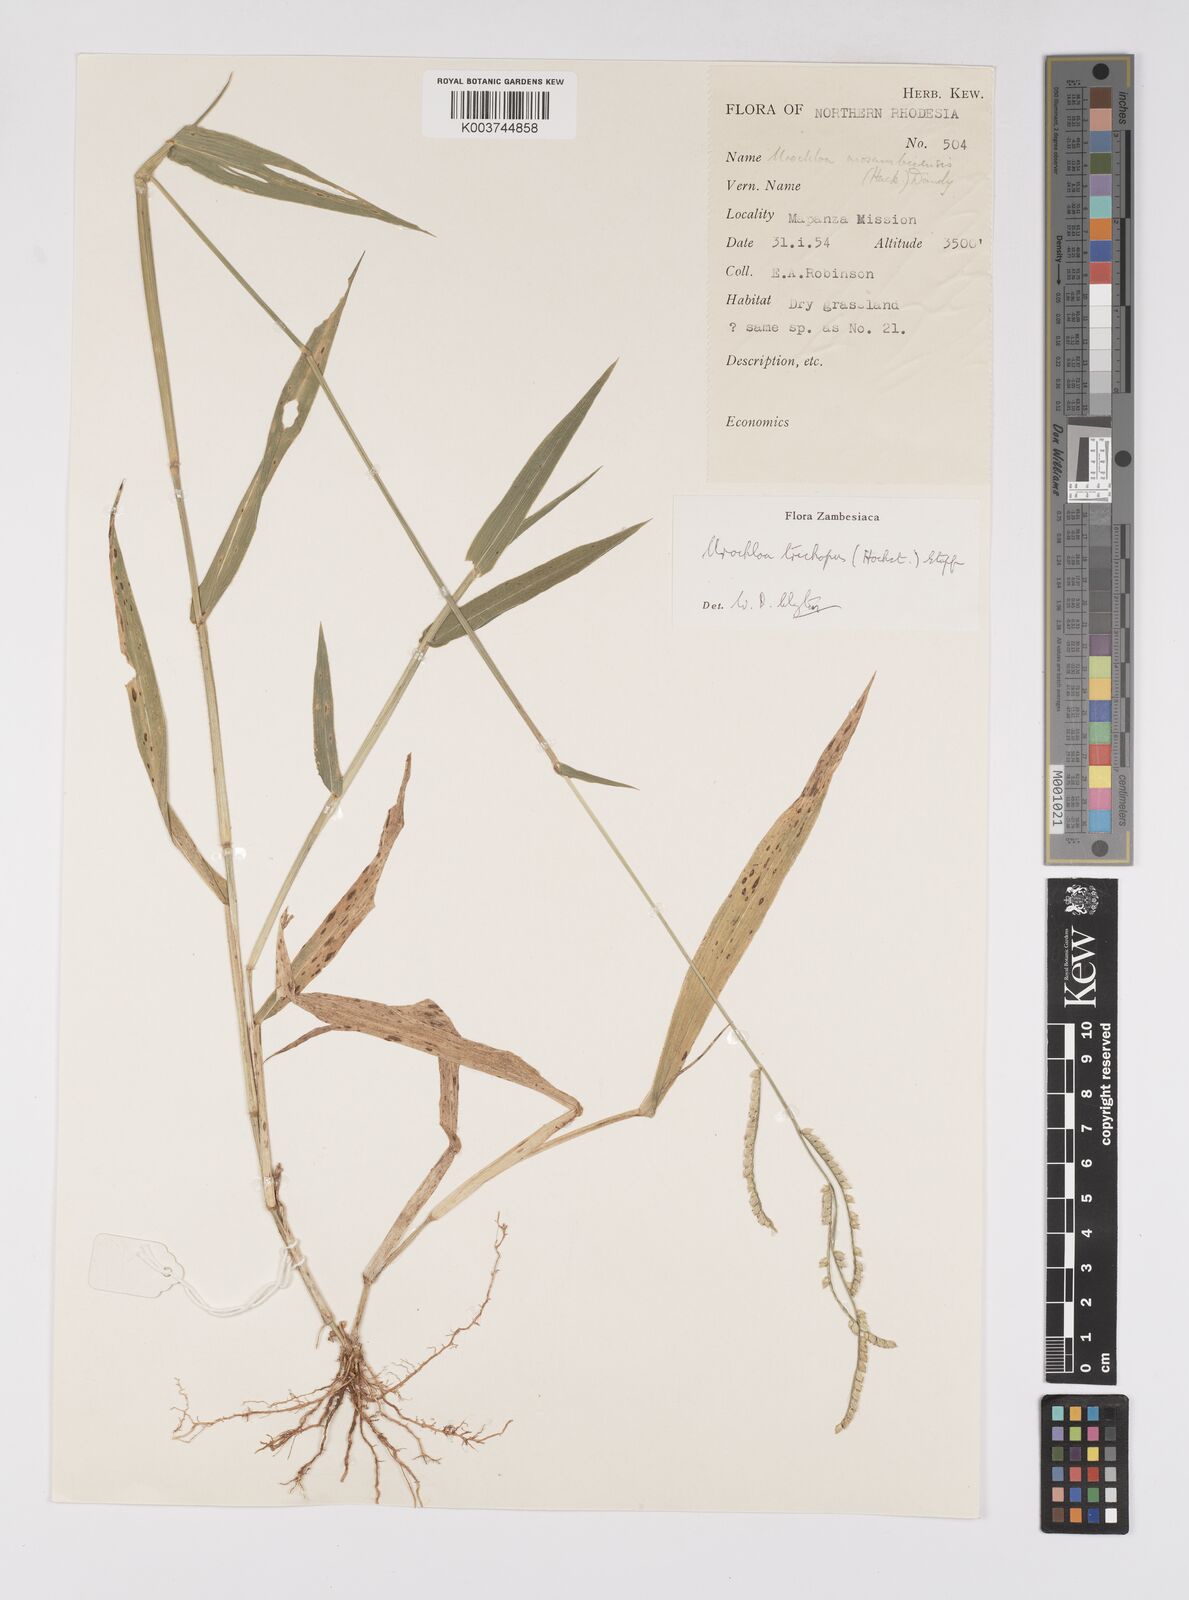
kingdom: Plantae
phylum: Tracheophyta
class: Liliopsida
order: Poales
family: Poaceae
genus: Urochloa
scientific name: Urochloa trichopus
